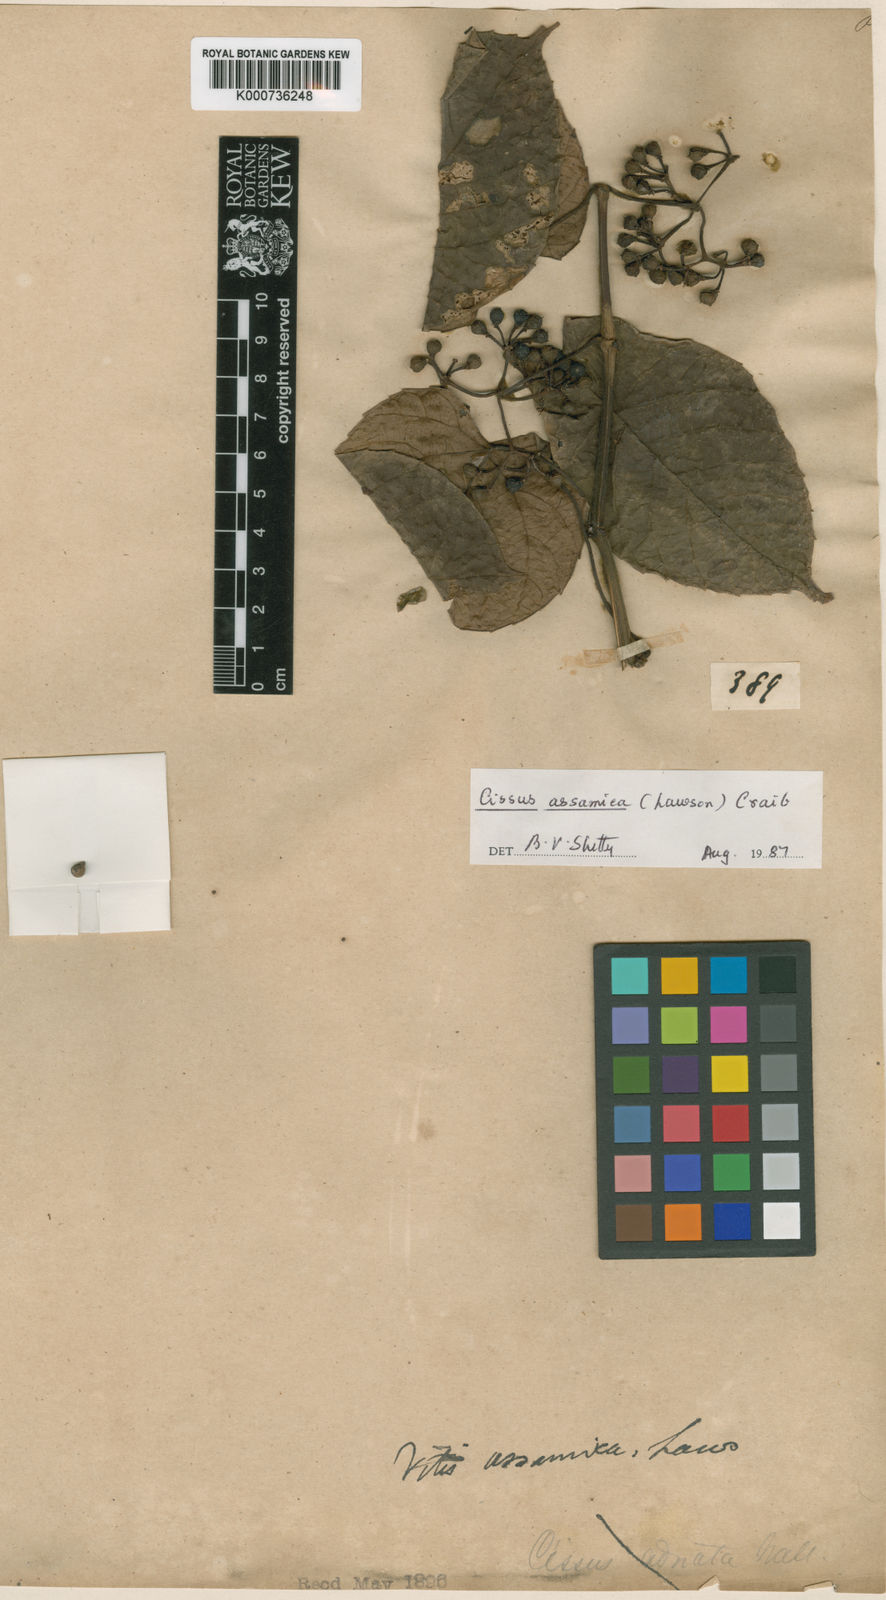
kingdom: Plantae
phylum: Tracheophyta
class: Magnoliopsida
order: Vitales
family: Vitaceae
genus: Cissus
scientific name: Cissus assamica
